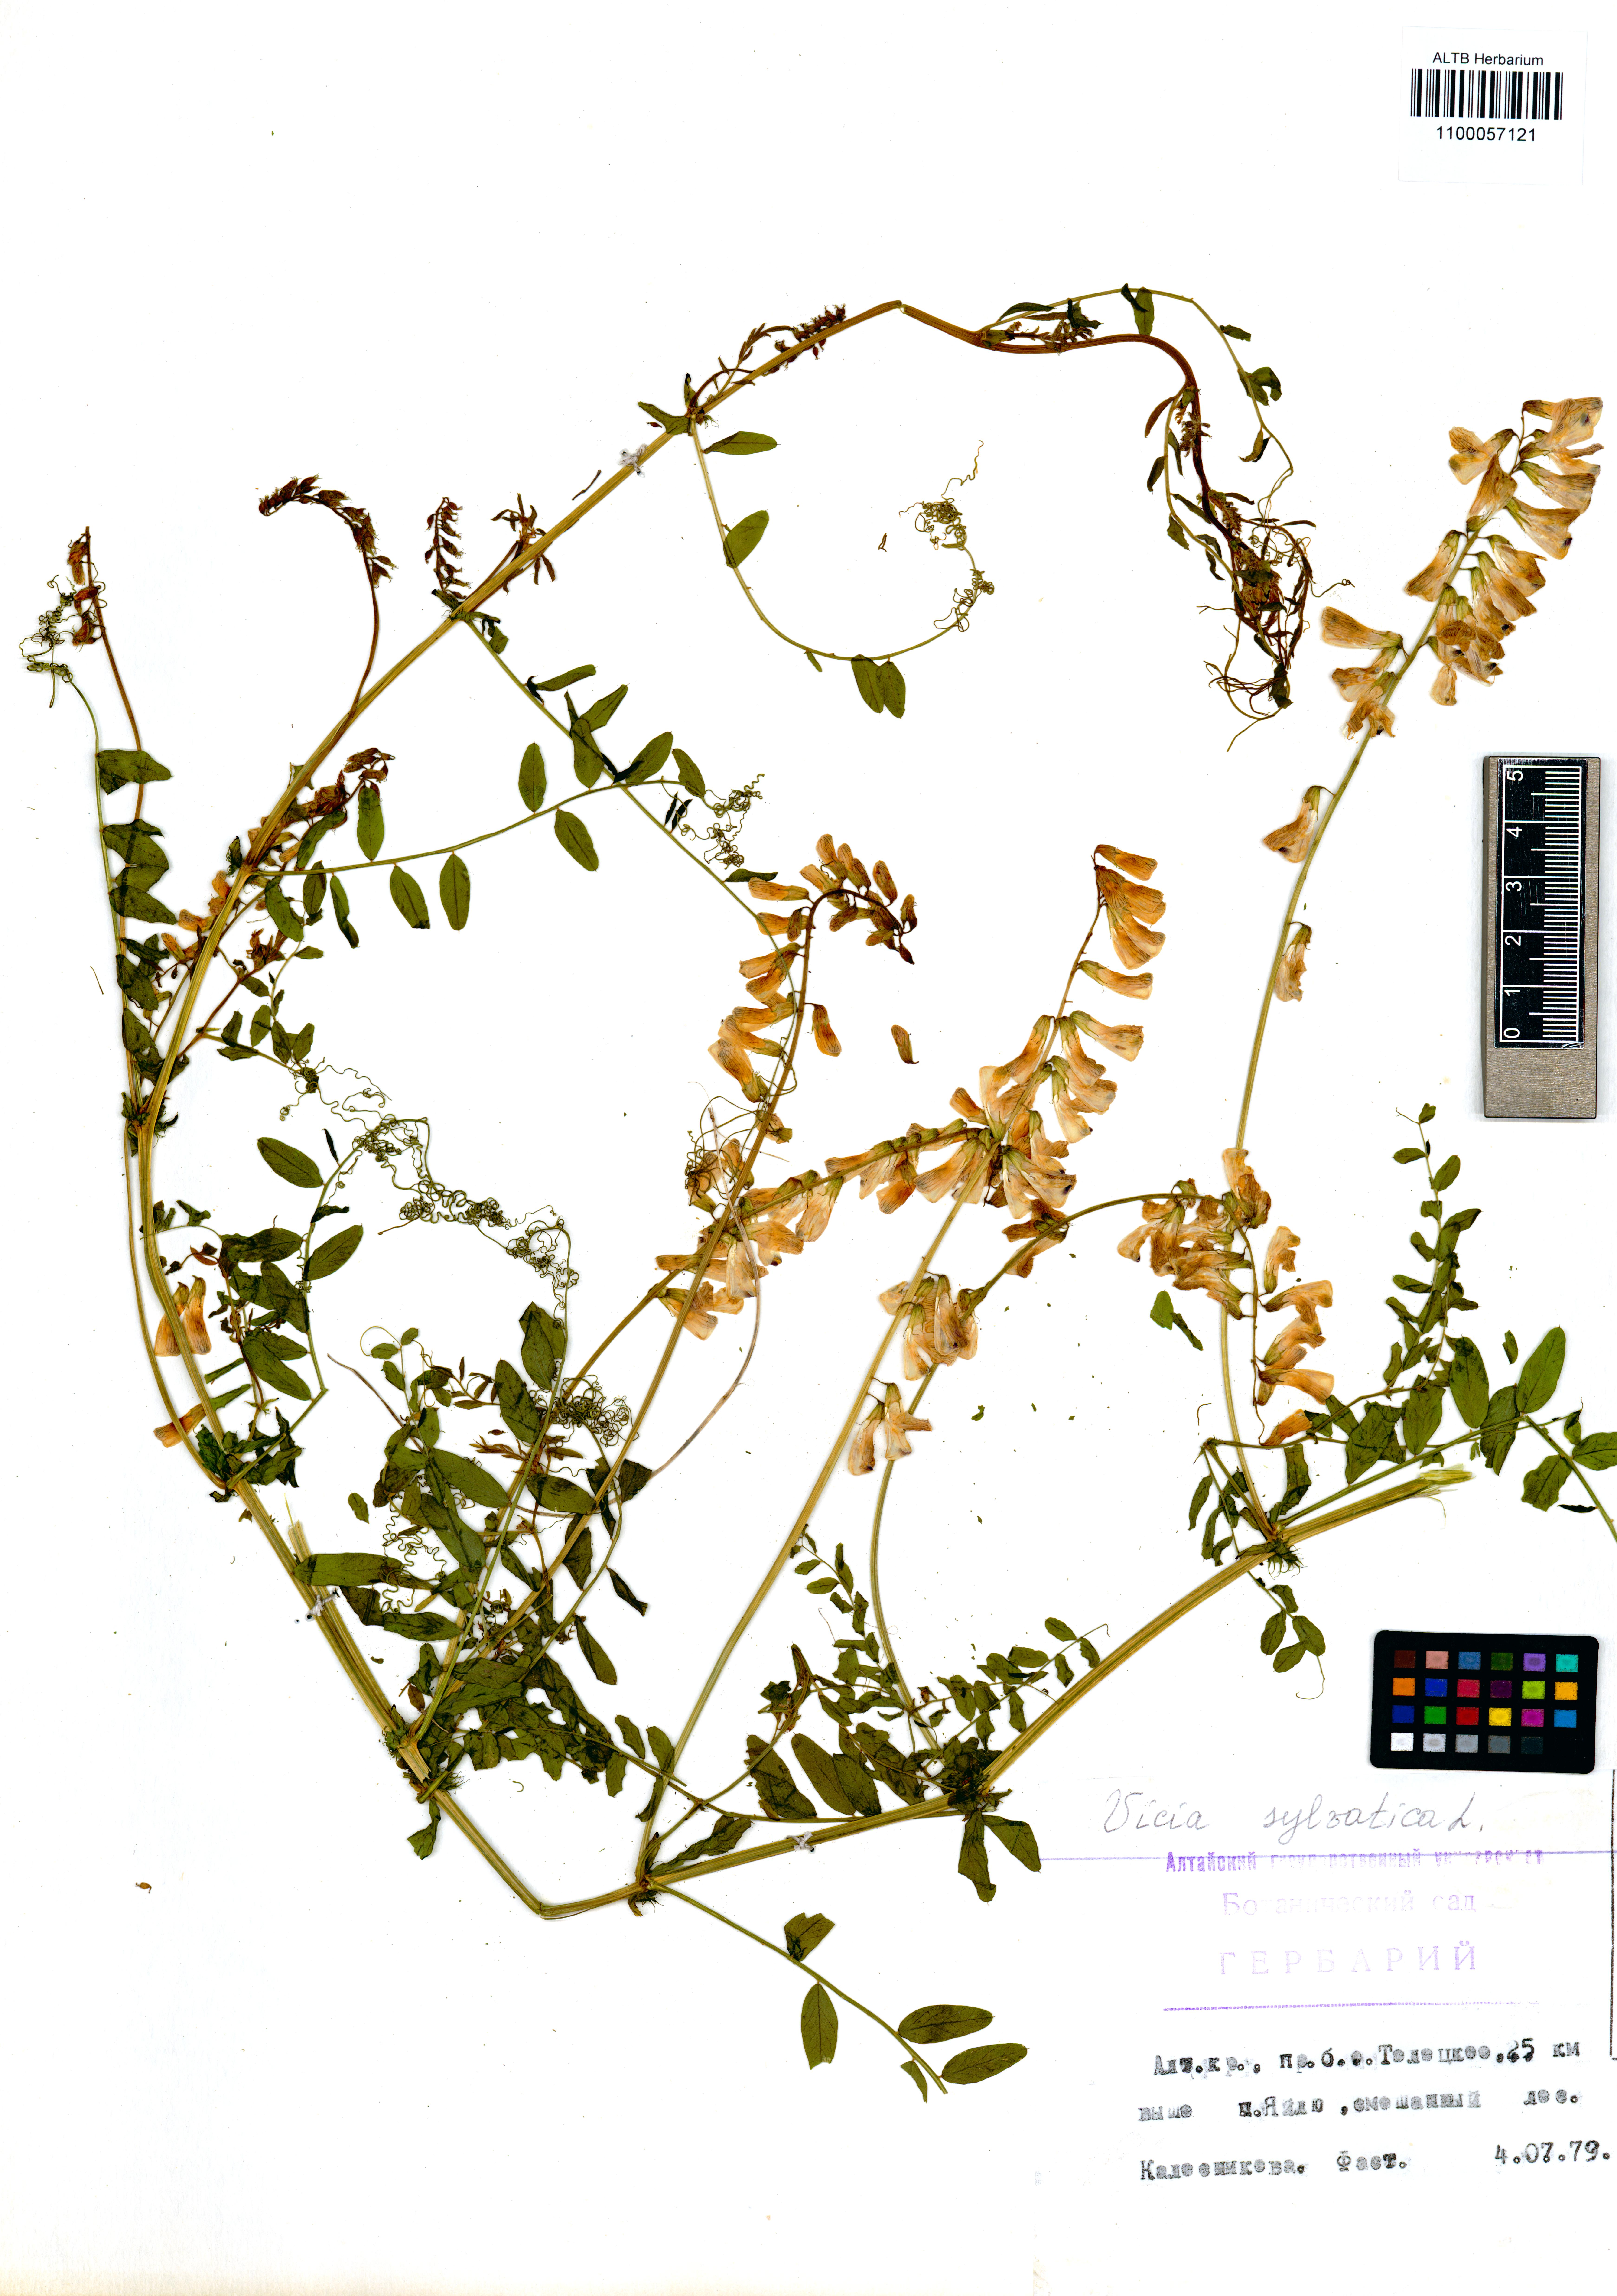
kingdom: Plantae
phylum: Tracheophyta
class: Magnoliopsida
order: Fabales
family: Fabaceae
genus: Vicia
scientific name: Vicia sylvatica
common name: Wood vetch
